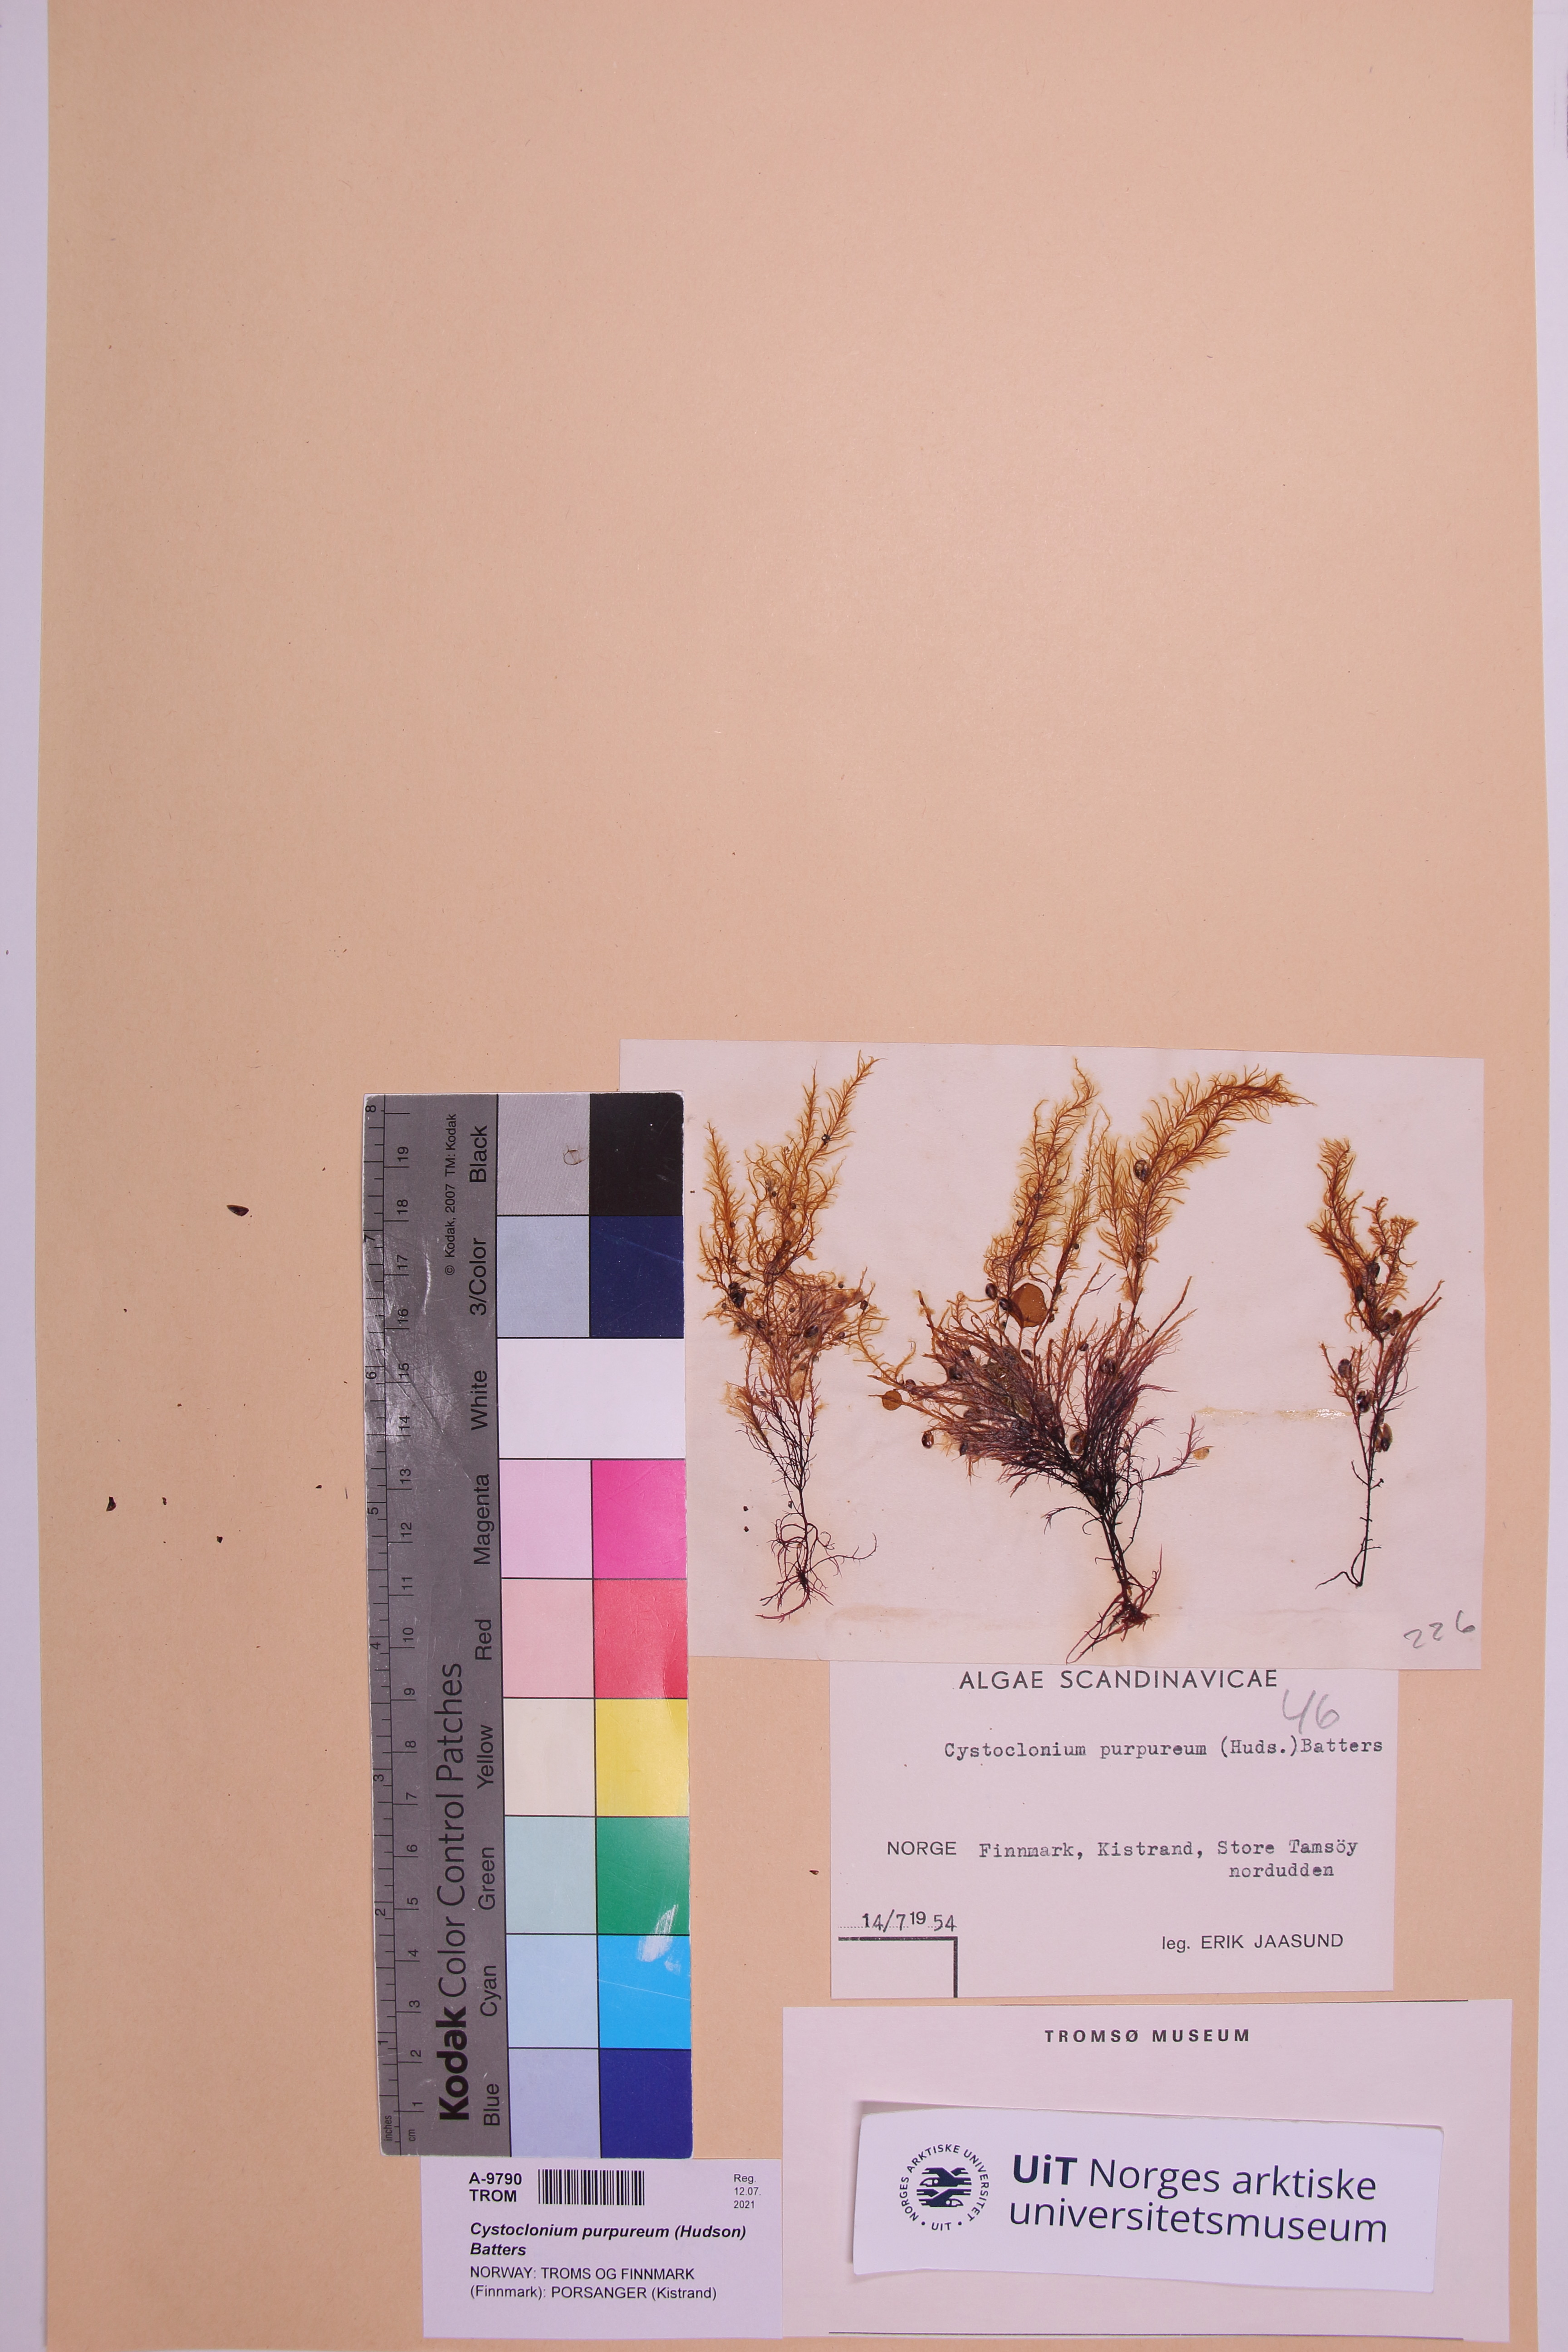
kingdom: Plantae
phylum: Rhodophyta
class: Florideophyceae
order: Gigartinales
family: Cystocloniaceae
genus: Cystoclonium
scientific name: Cystoclonium purpureum
